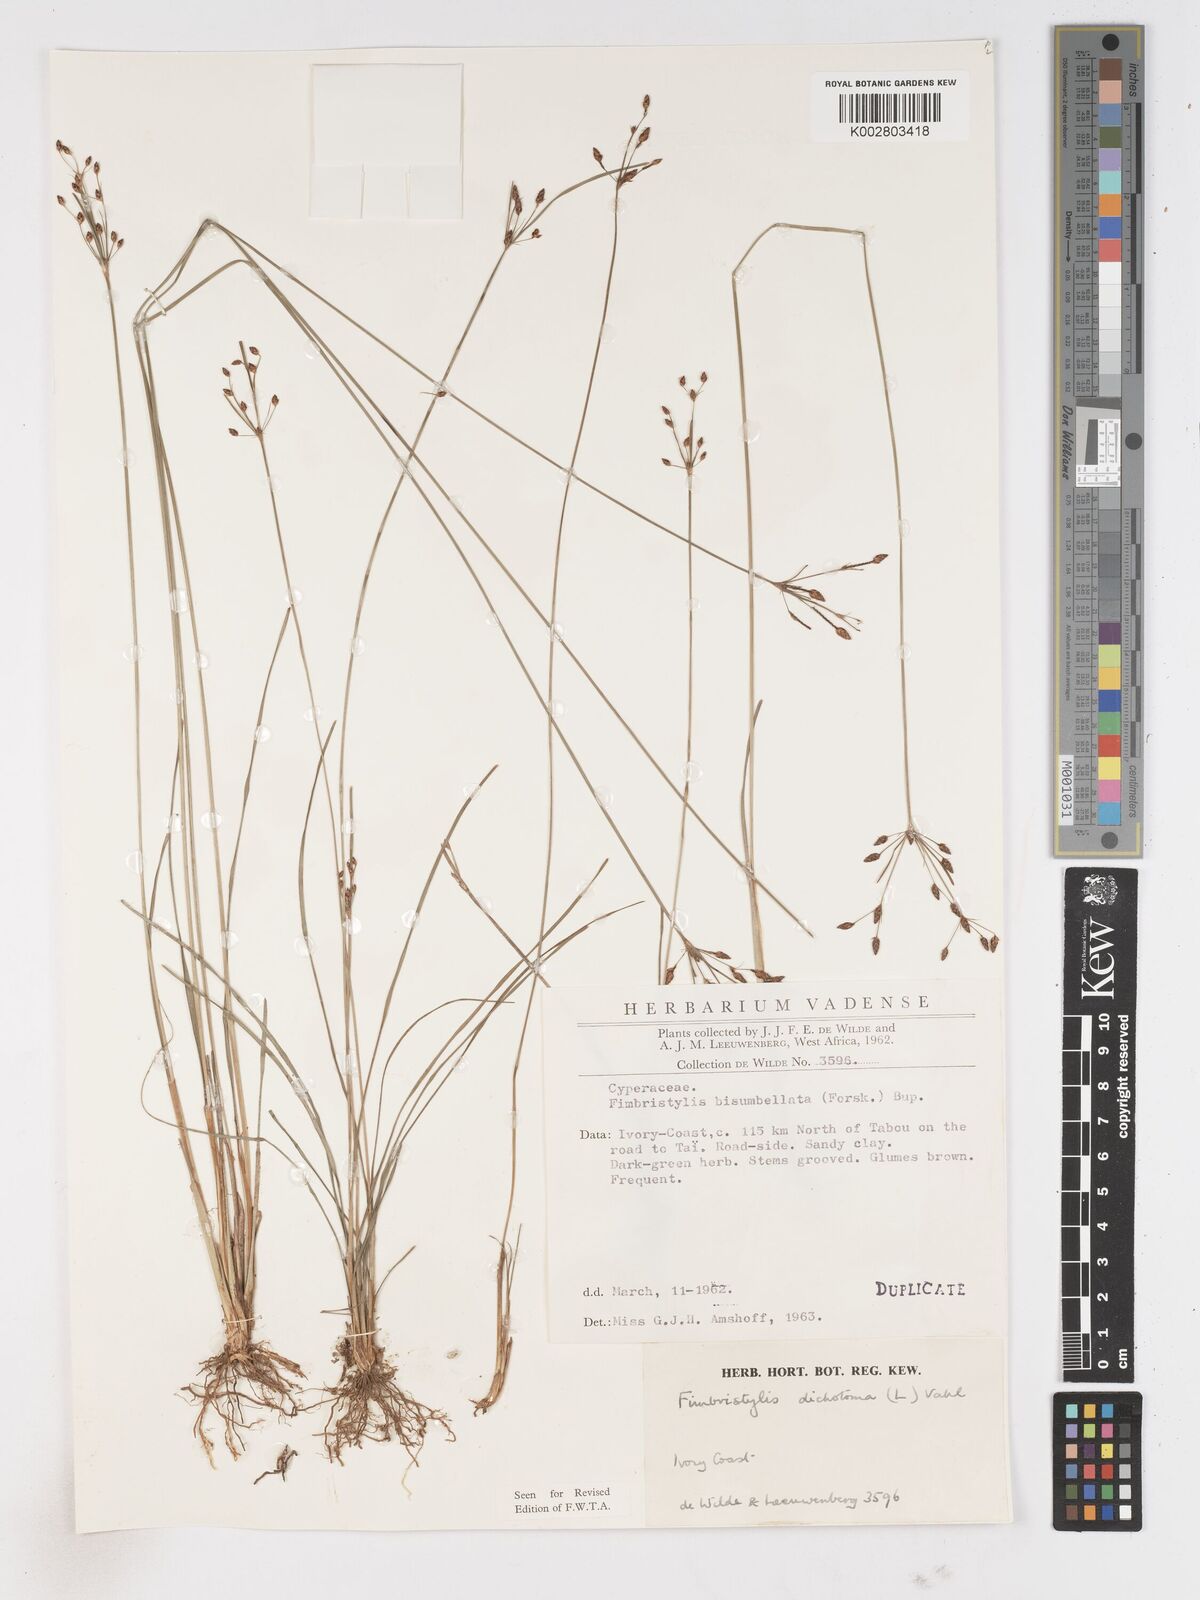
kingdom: Plantae
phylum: Tracheophyta
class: Liliopsida
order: Poales
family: Cyperaceae
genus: Fimbristylis
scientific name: Fimbristylis dichotoma
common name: Forked fimbry
